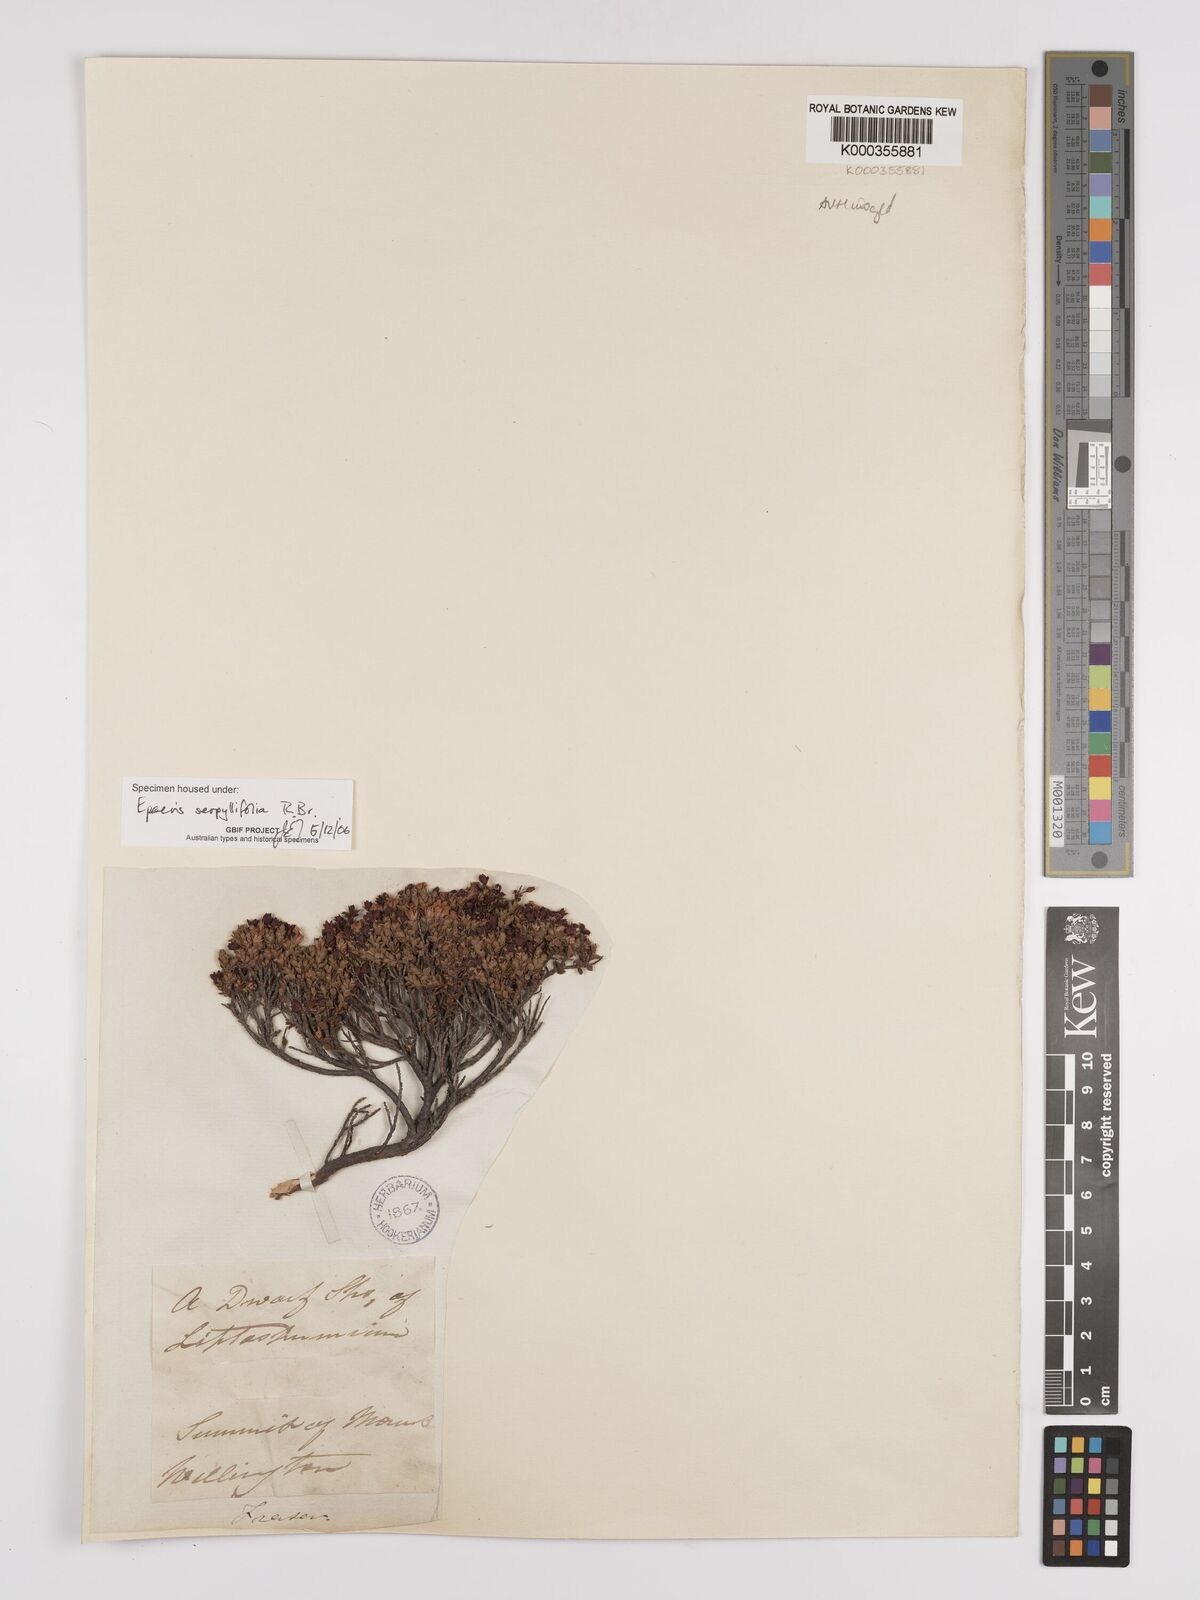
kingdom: Plantae
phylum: Tracheophyta
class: Magnoliopsida
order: Ericales
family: Ericaceae
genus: Epacris
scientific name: Epacris serpyllifolia
